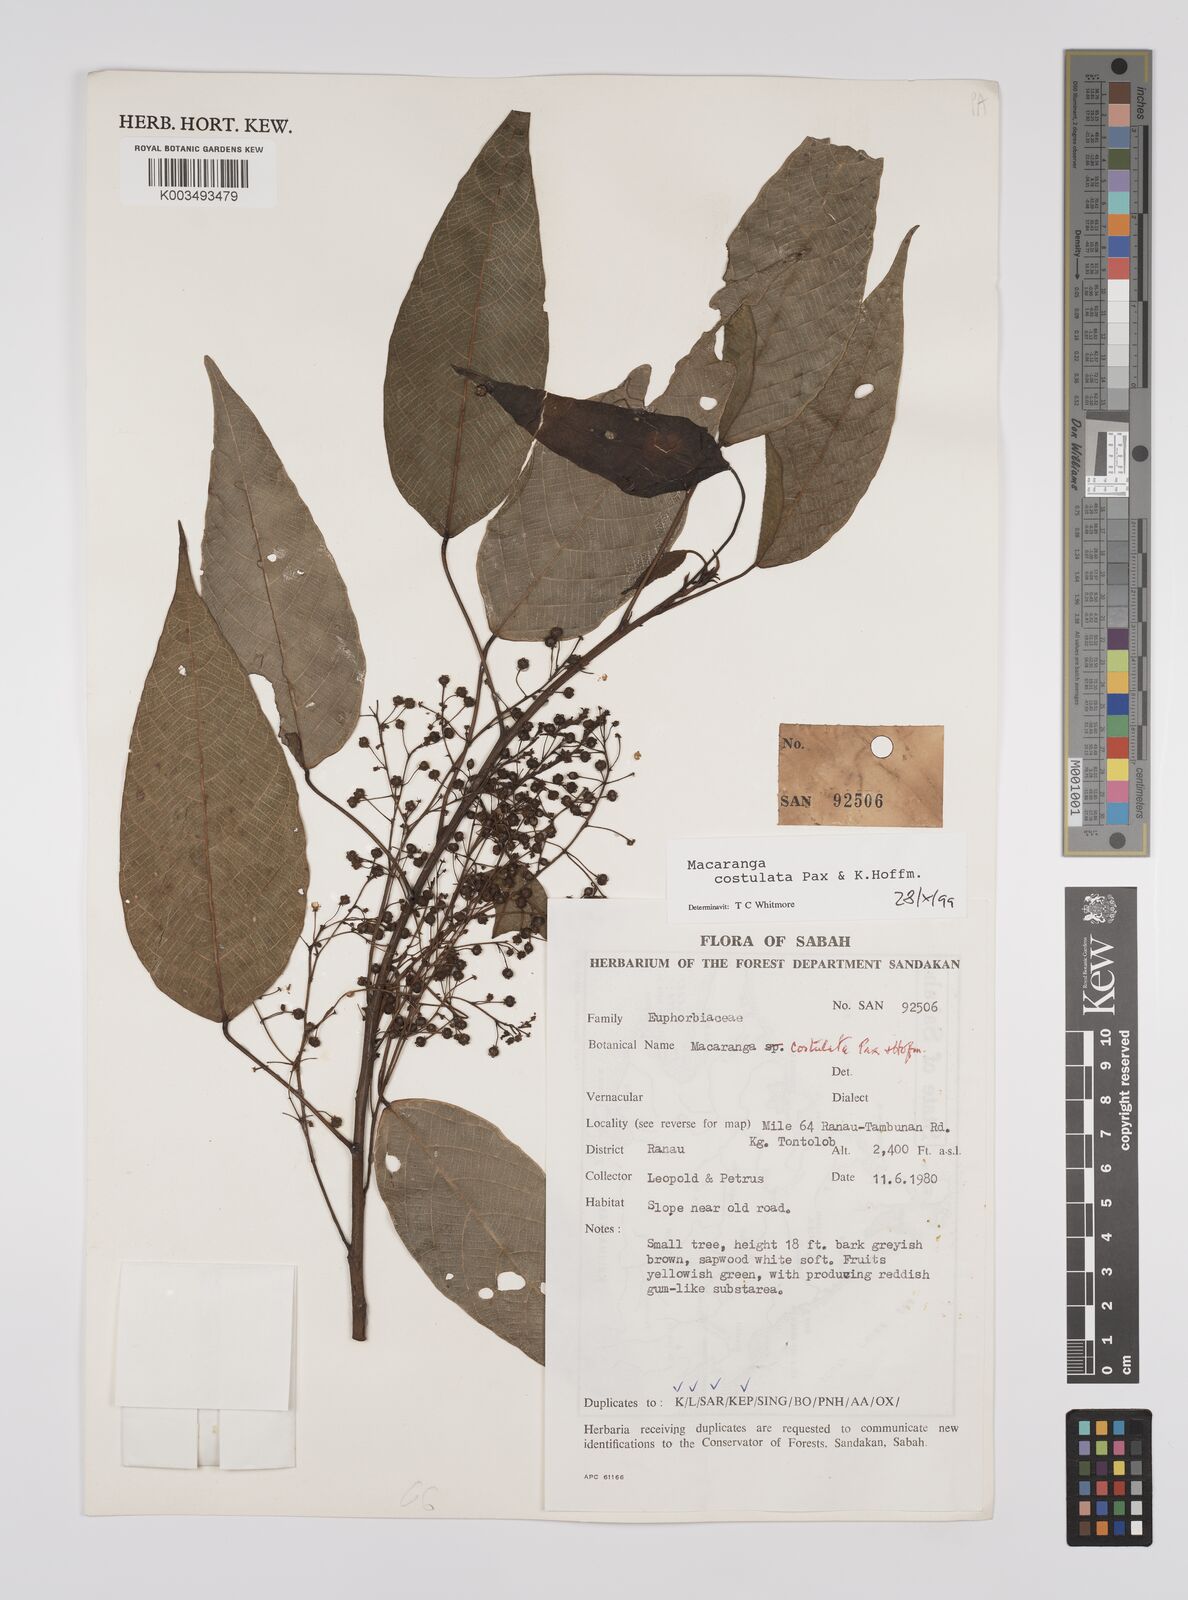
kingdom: Plantae
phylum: Tracheophyta
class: Magnoliopsida
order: Malpighiales
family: Euphorbiaceae
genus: Macaranga
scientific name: Macaranga costulata
